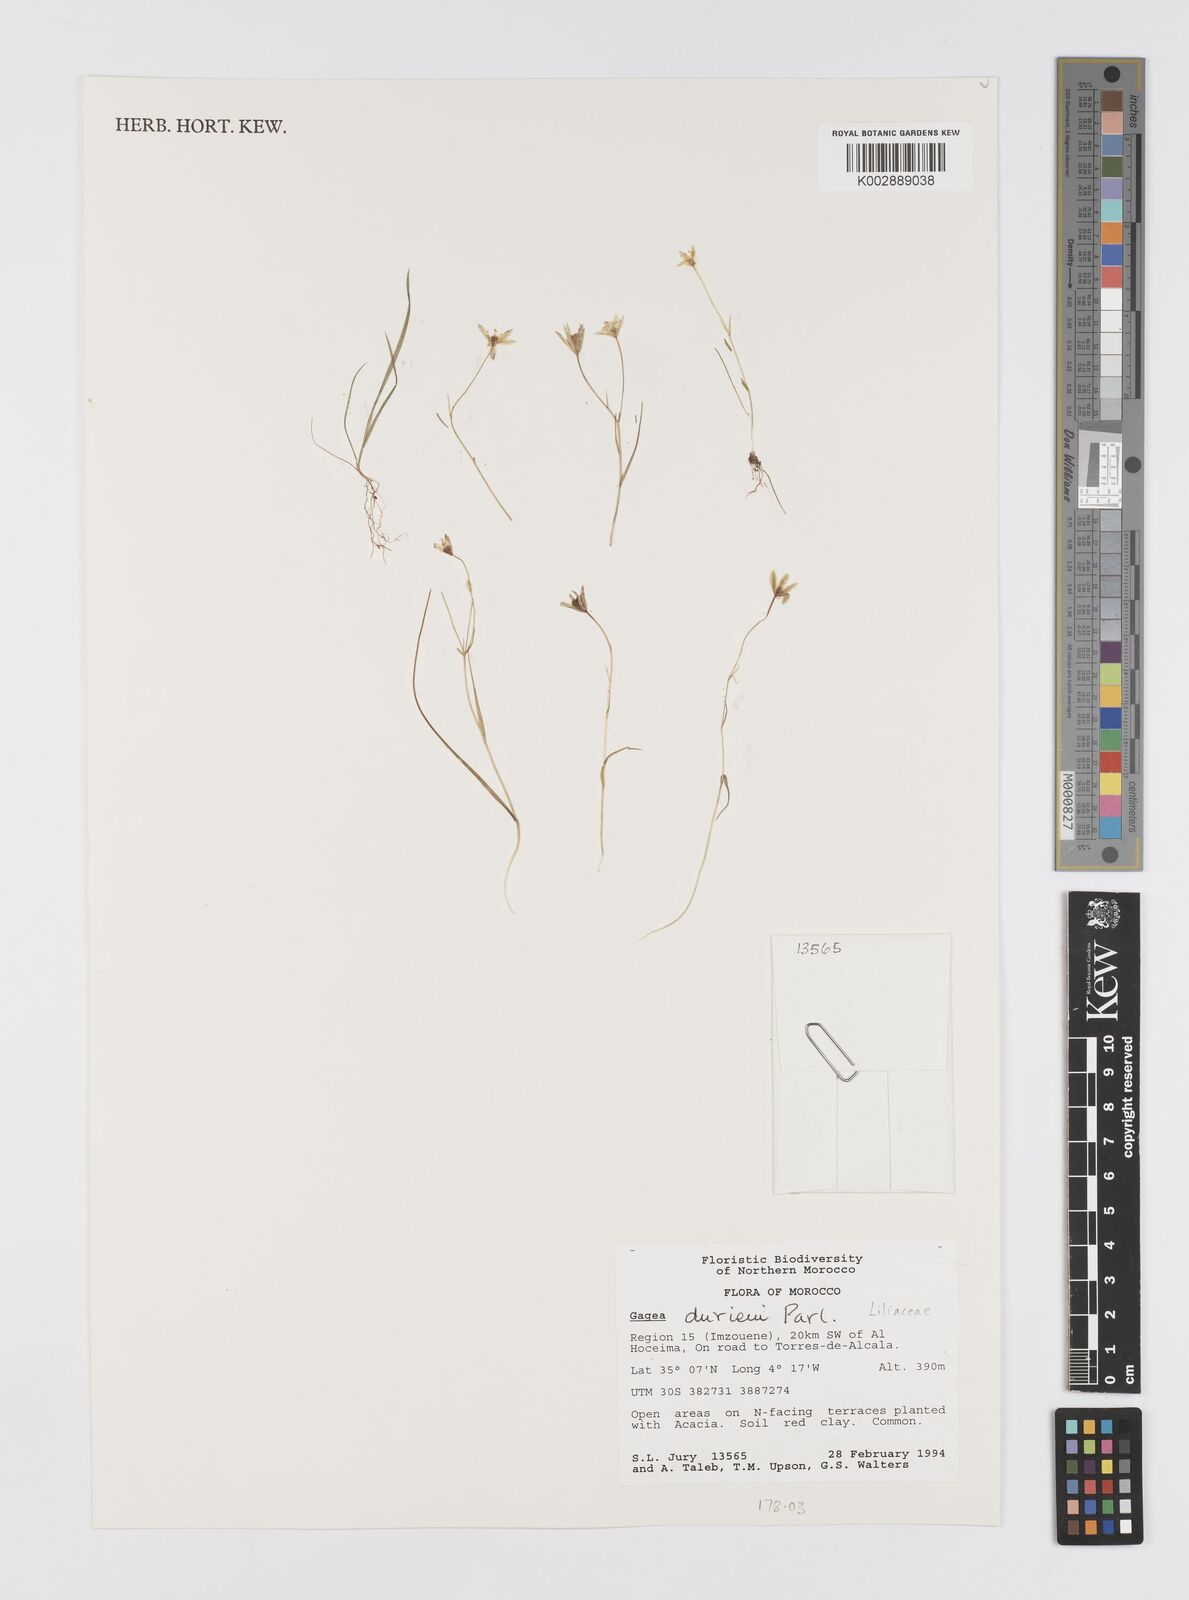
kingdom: Plantae
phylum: Tracheophyta
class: Liliopsida
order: Liliales
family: Liliaceae
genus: Gagea
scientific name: Gagea durieui
